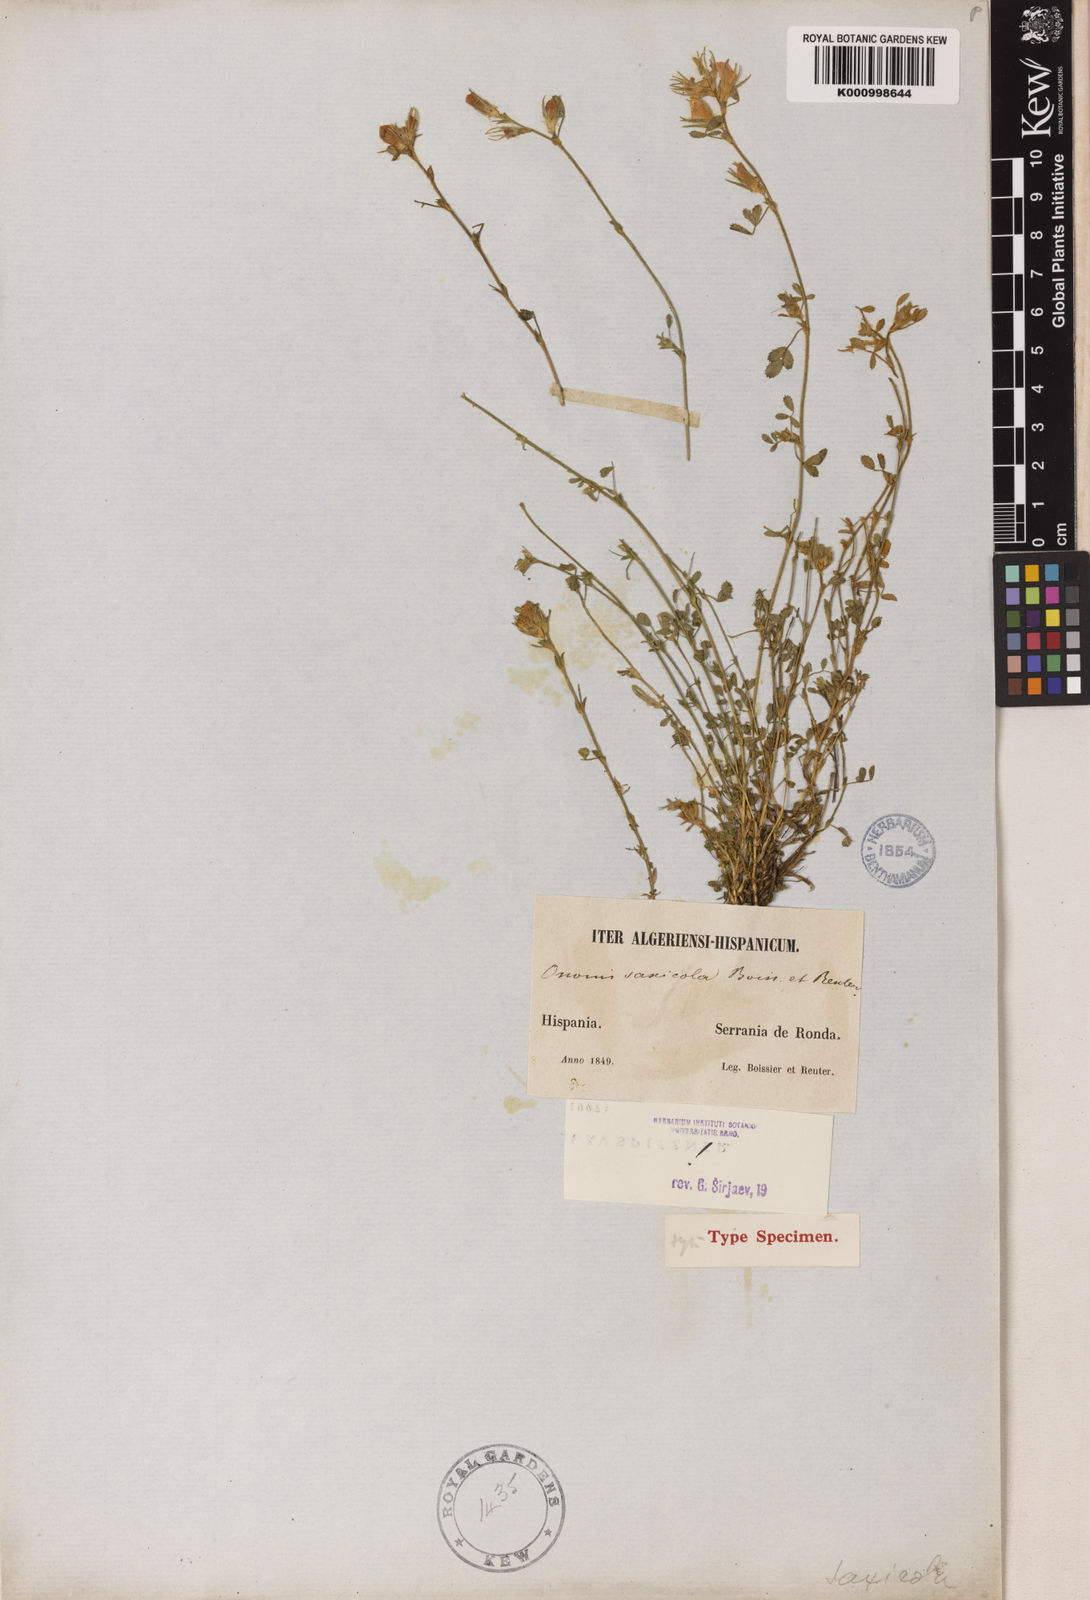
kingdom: Plantae
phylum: Tracheophyta
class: Magnoliopsida
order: Fabales
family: Fabaceae
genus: Ononis
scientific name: Ononis pusilla
